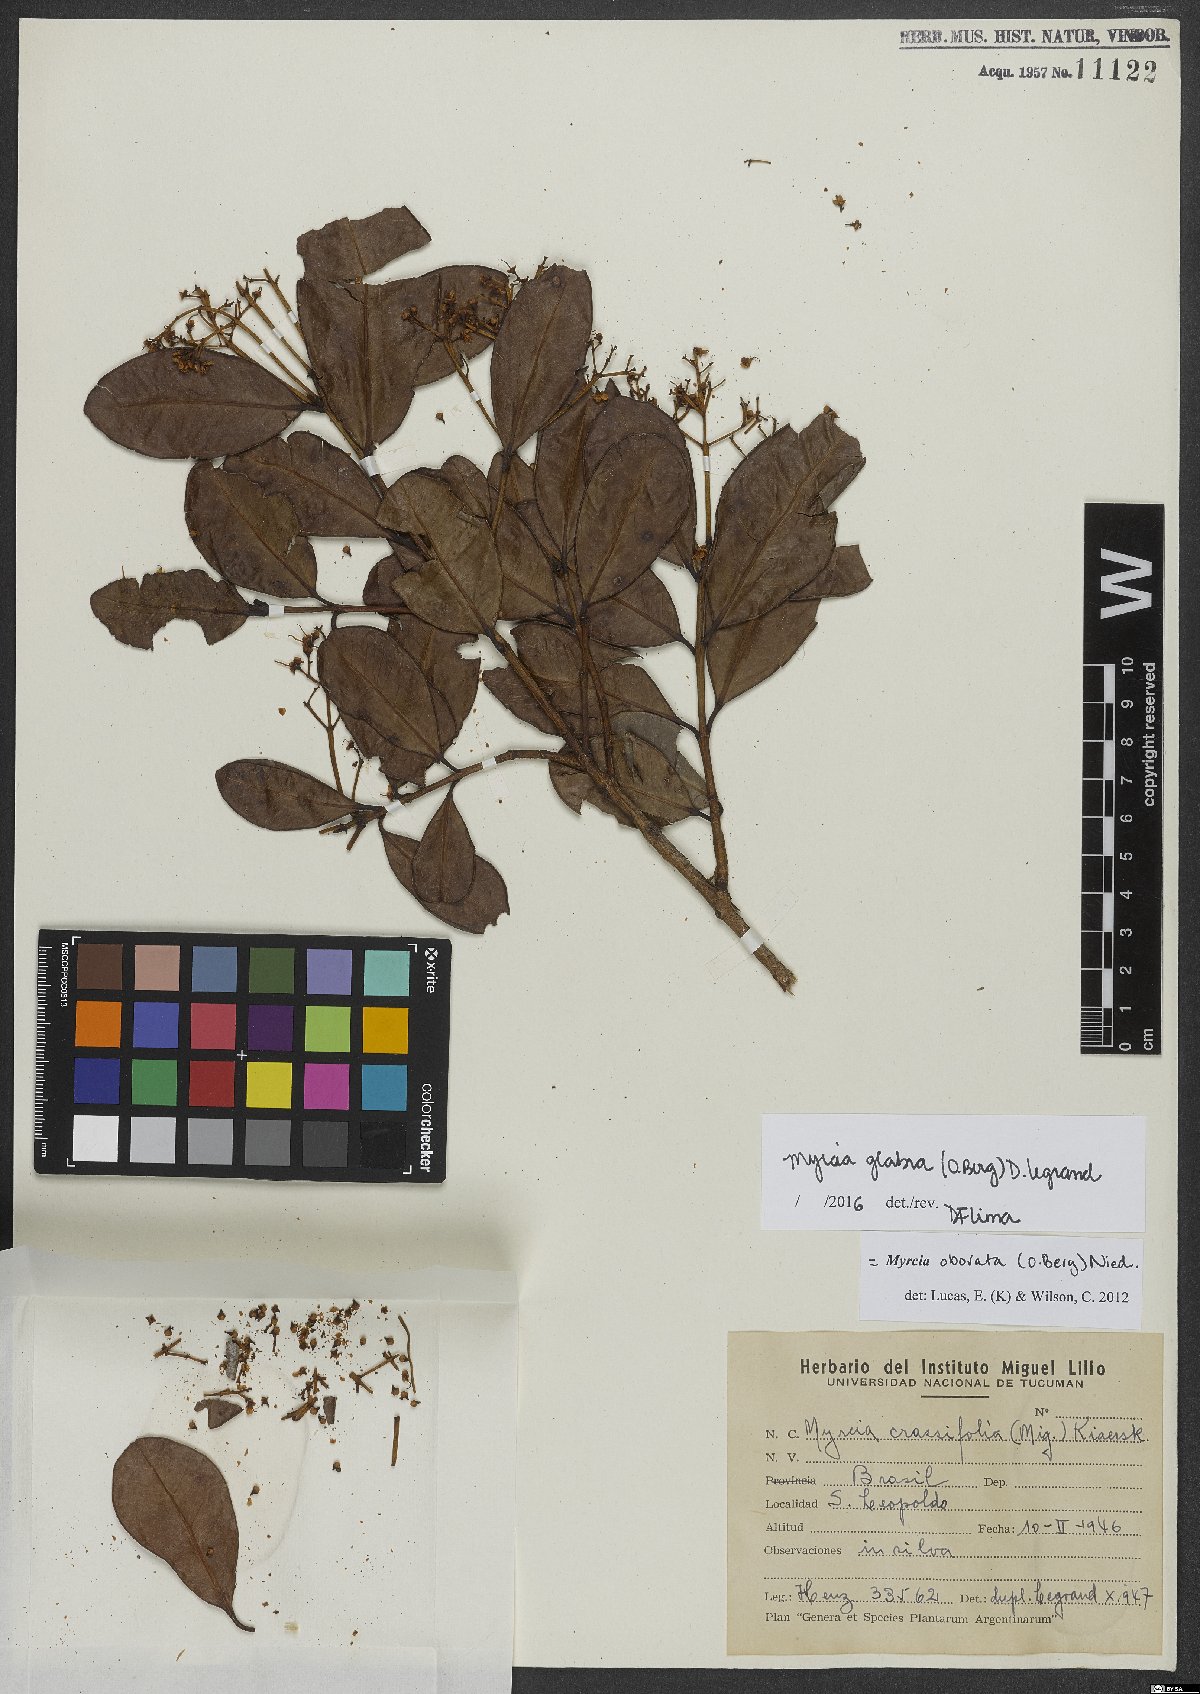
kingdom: Plantae
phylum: Tracheophyta
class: Magnoliopsida
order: Myrtales
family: Myrtaceae
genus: Myrcia
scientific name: Myrcia glabra
